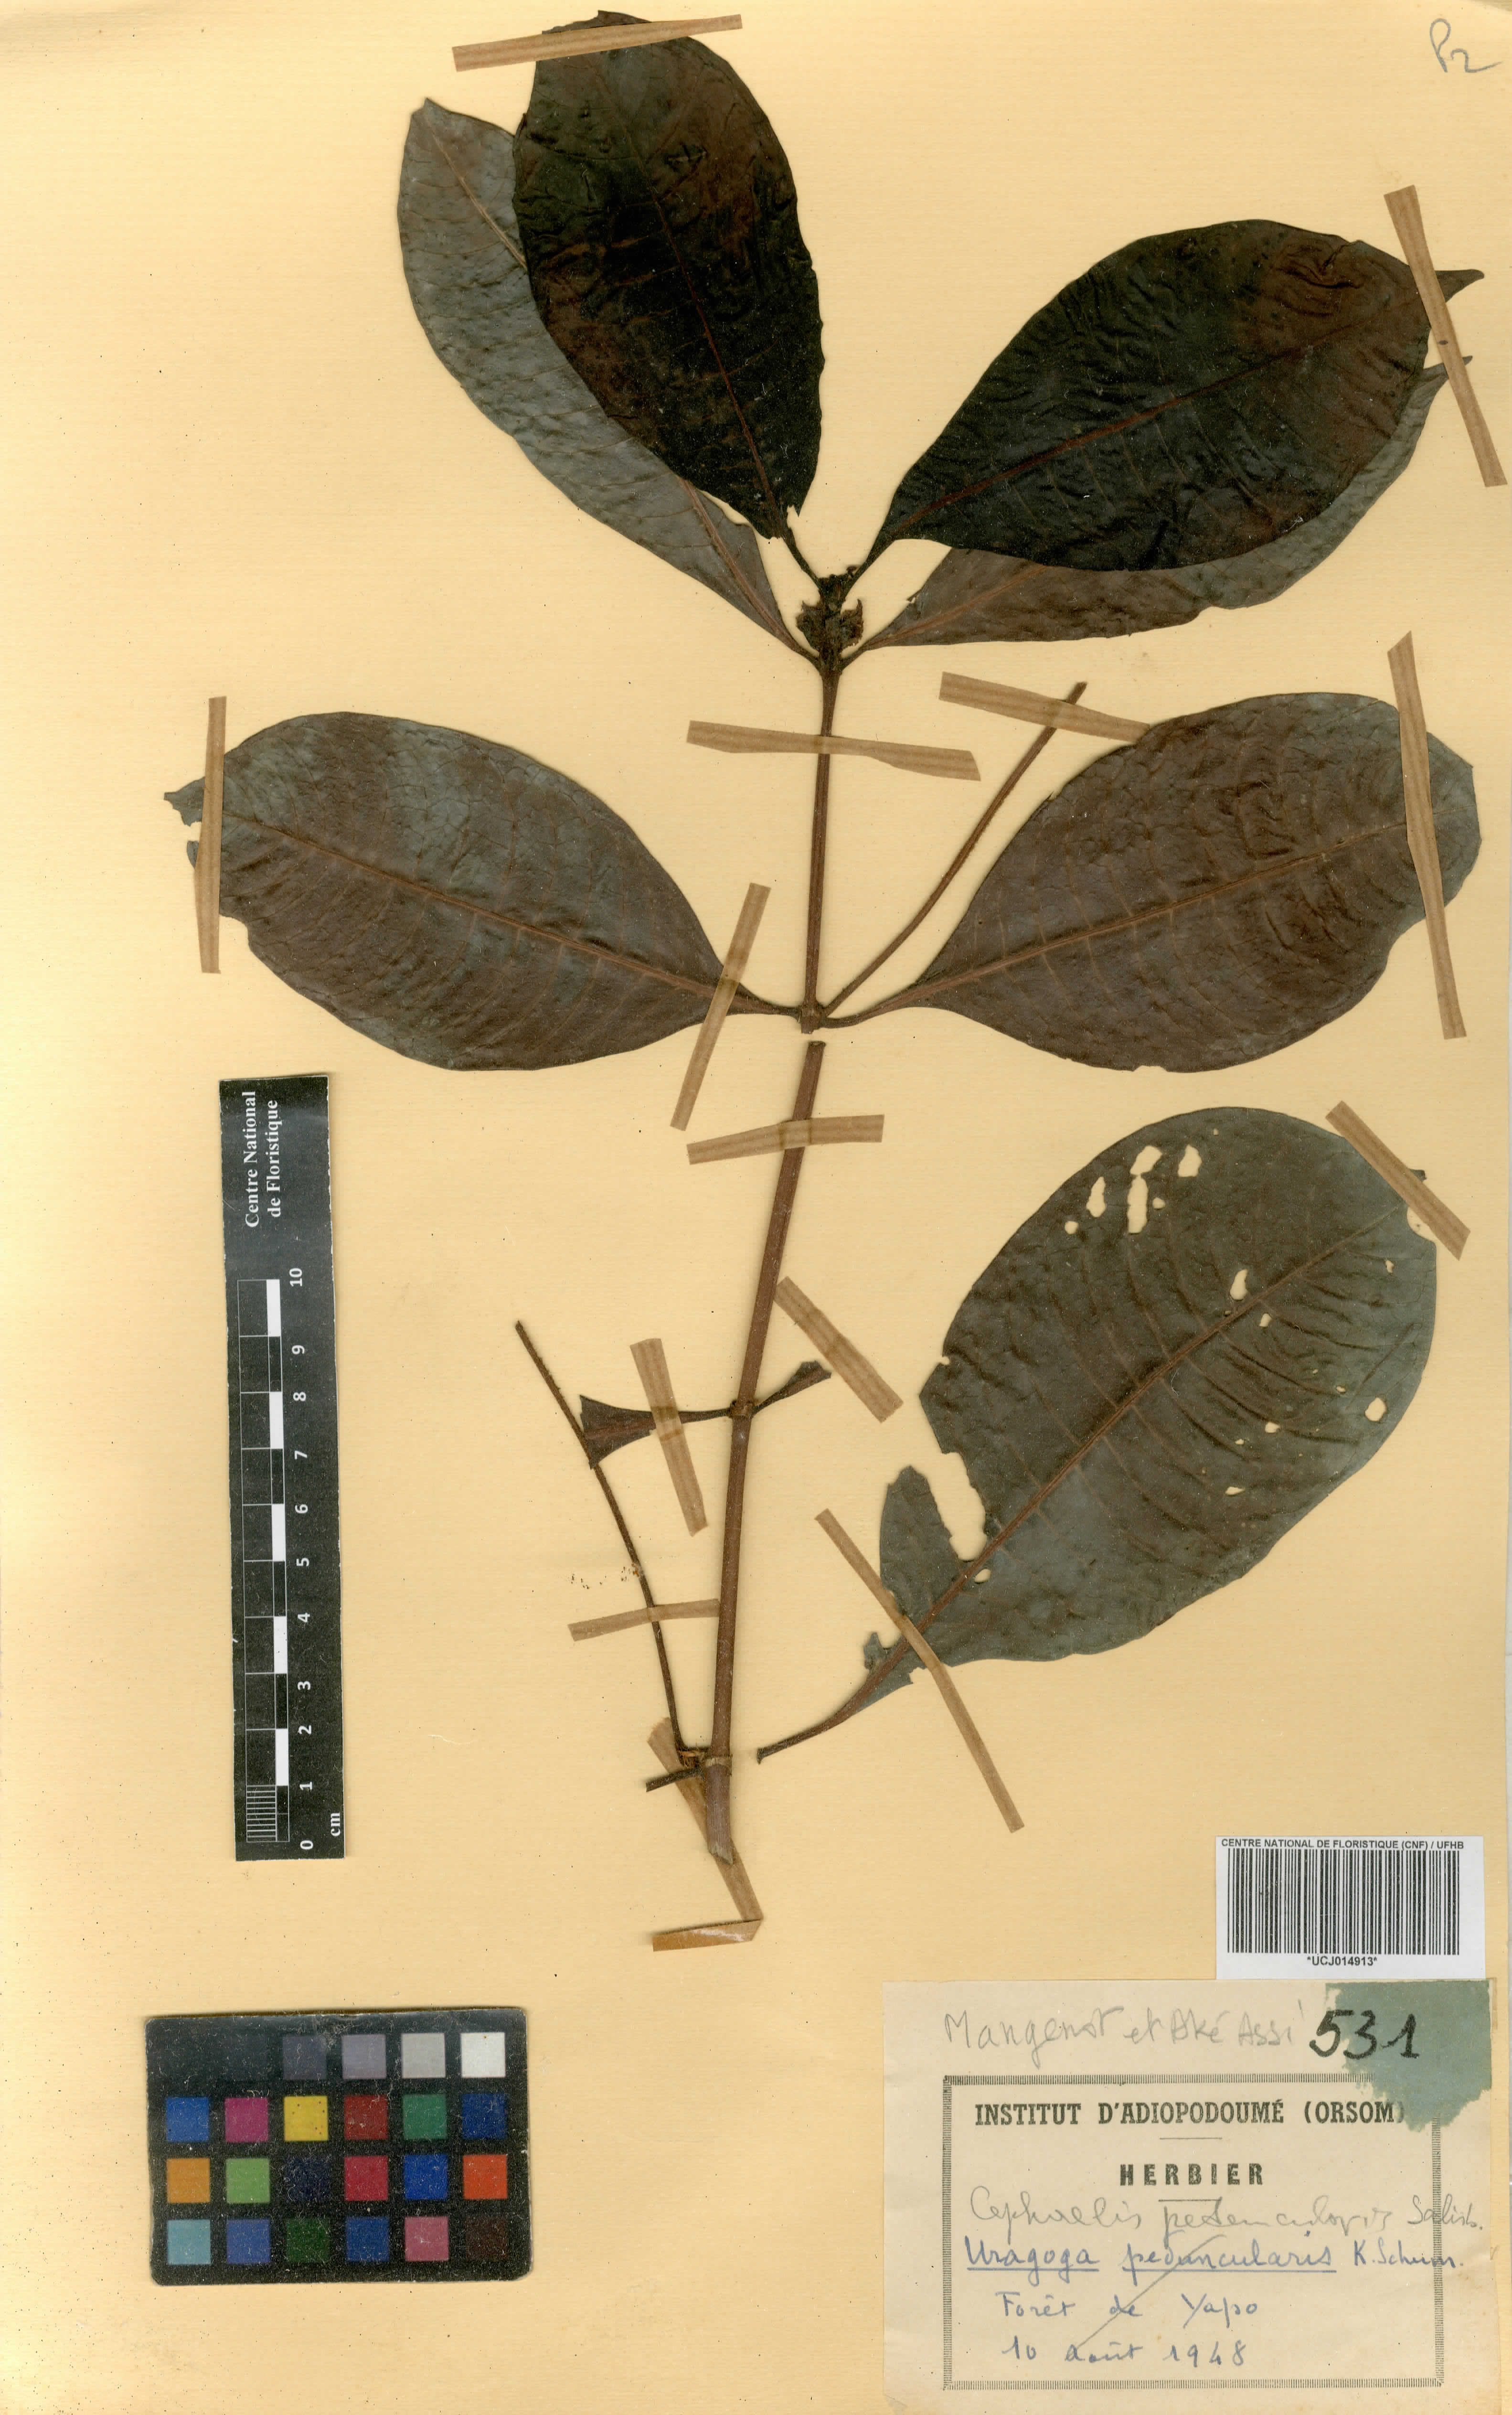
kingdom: Plantae
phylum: Tracheophyta
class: Magnoliopsida
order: Gentianales
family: Rubiaceae
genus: Psychotria
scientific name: Psychotria peduncularis
